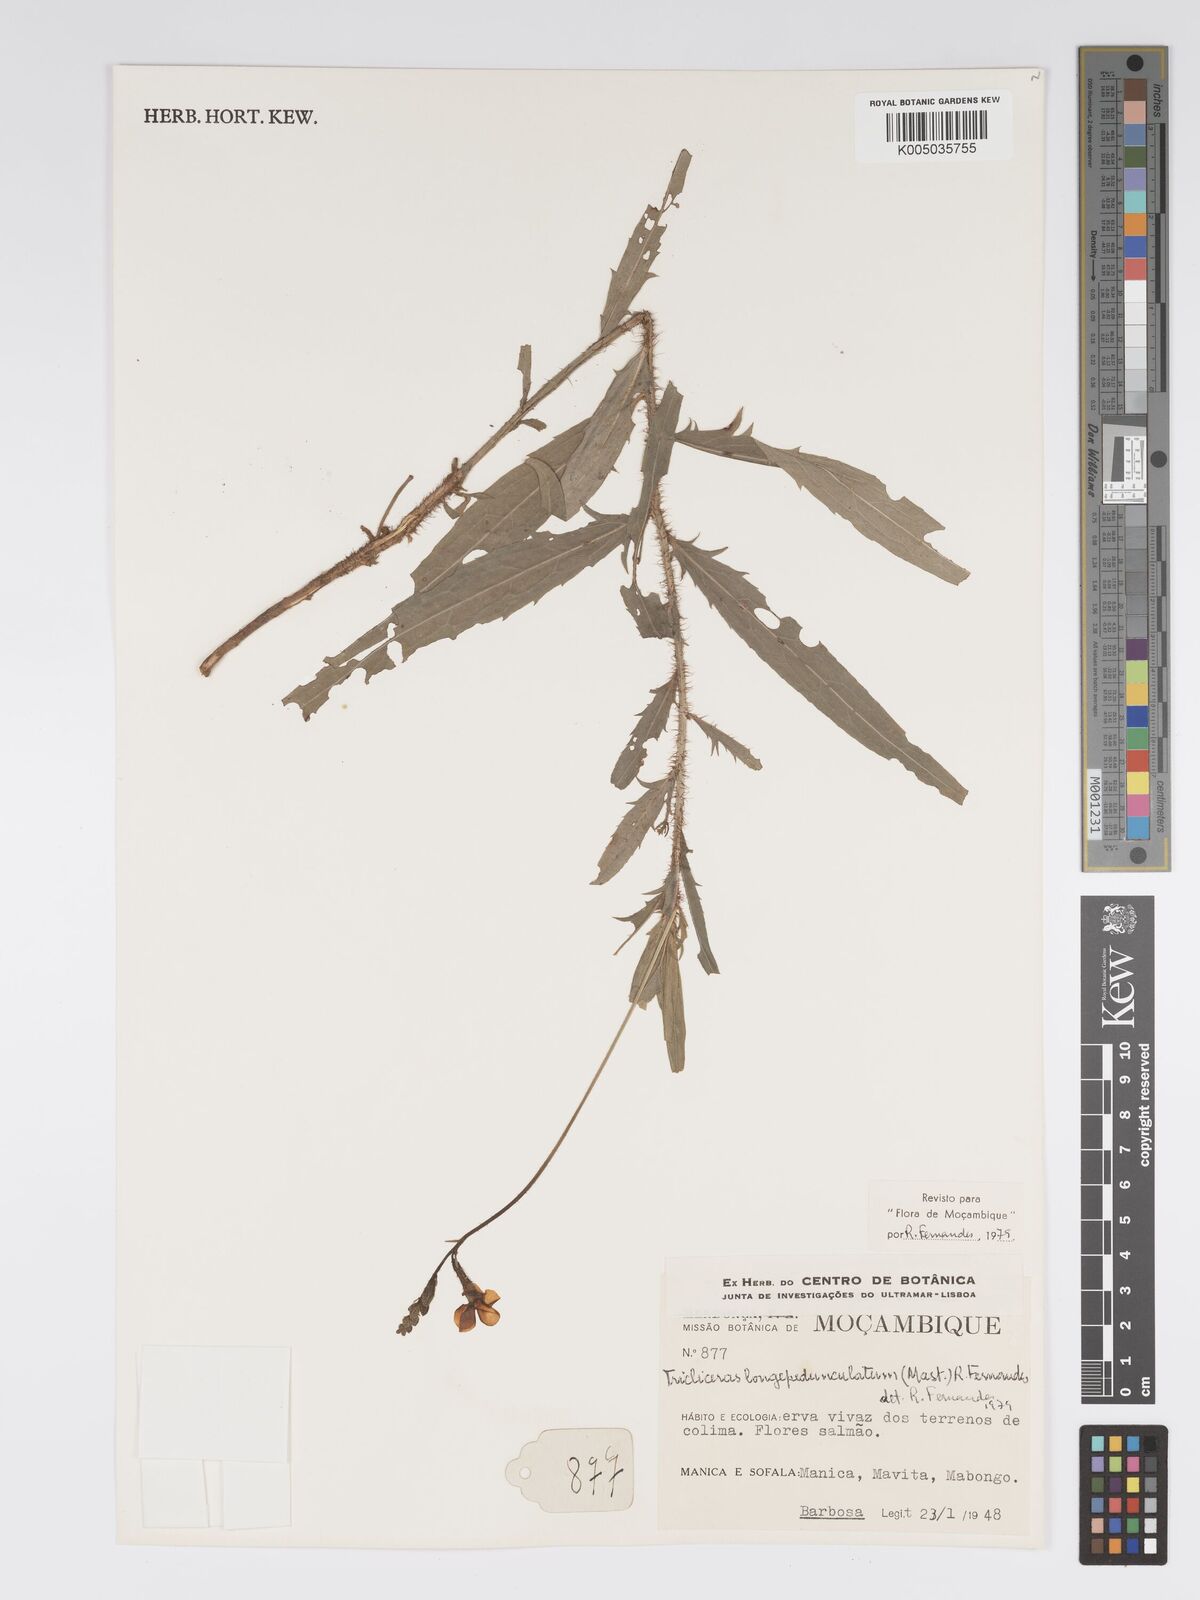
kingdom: Plantae
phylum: Tracheophyta
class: Magnoliopsida
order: Malpighiales
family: Turneraceae
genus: Tricliceras
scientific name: Tricliceras longepedunculatum
